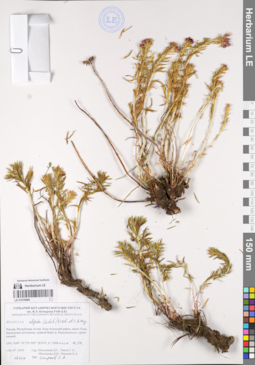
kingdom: Plantae
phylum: Tracheophyta
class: Magnoliopsida
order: Saxifragales
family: Crassulaceae
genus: Rhodiola
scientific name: Rhodiola algida
